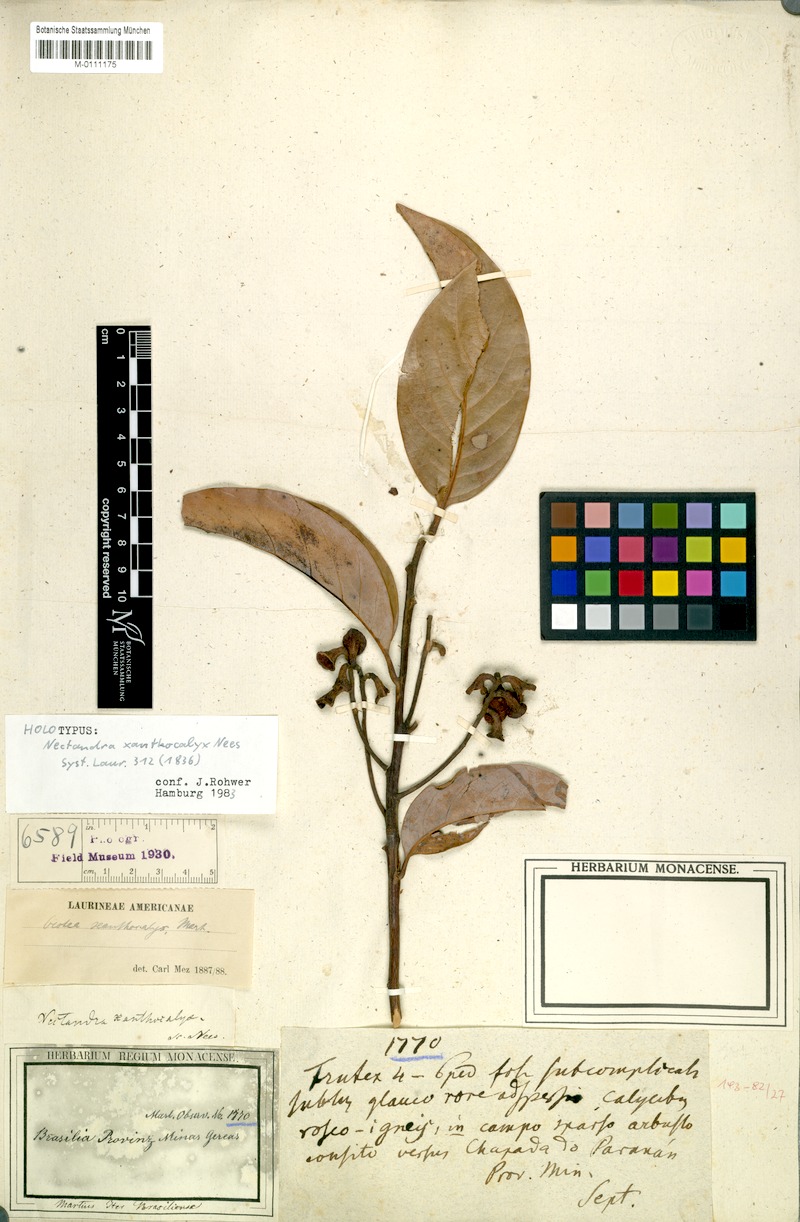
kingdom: Plantae
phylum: Tracheophyta
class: Magnoliopsida
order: Laurales
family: Lauraceae
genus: Ocotea
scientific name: Ocotea xanthocalyx
